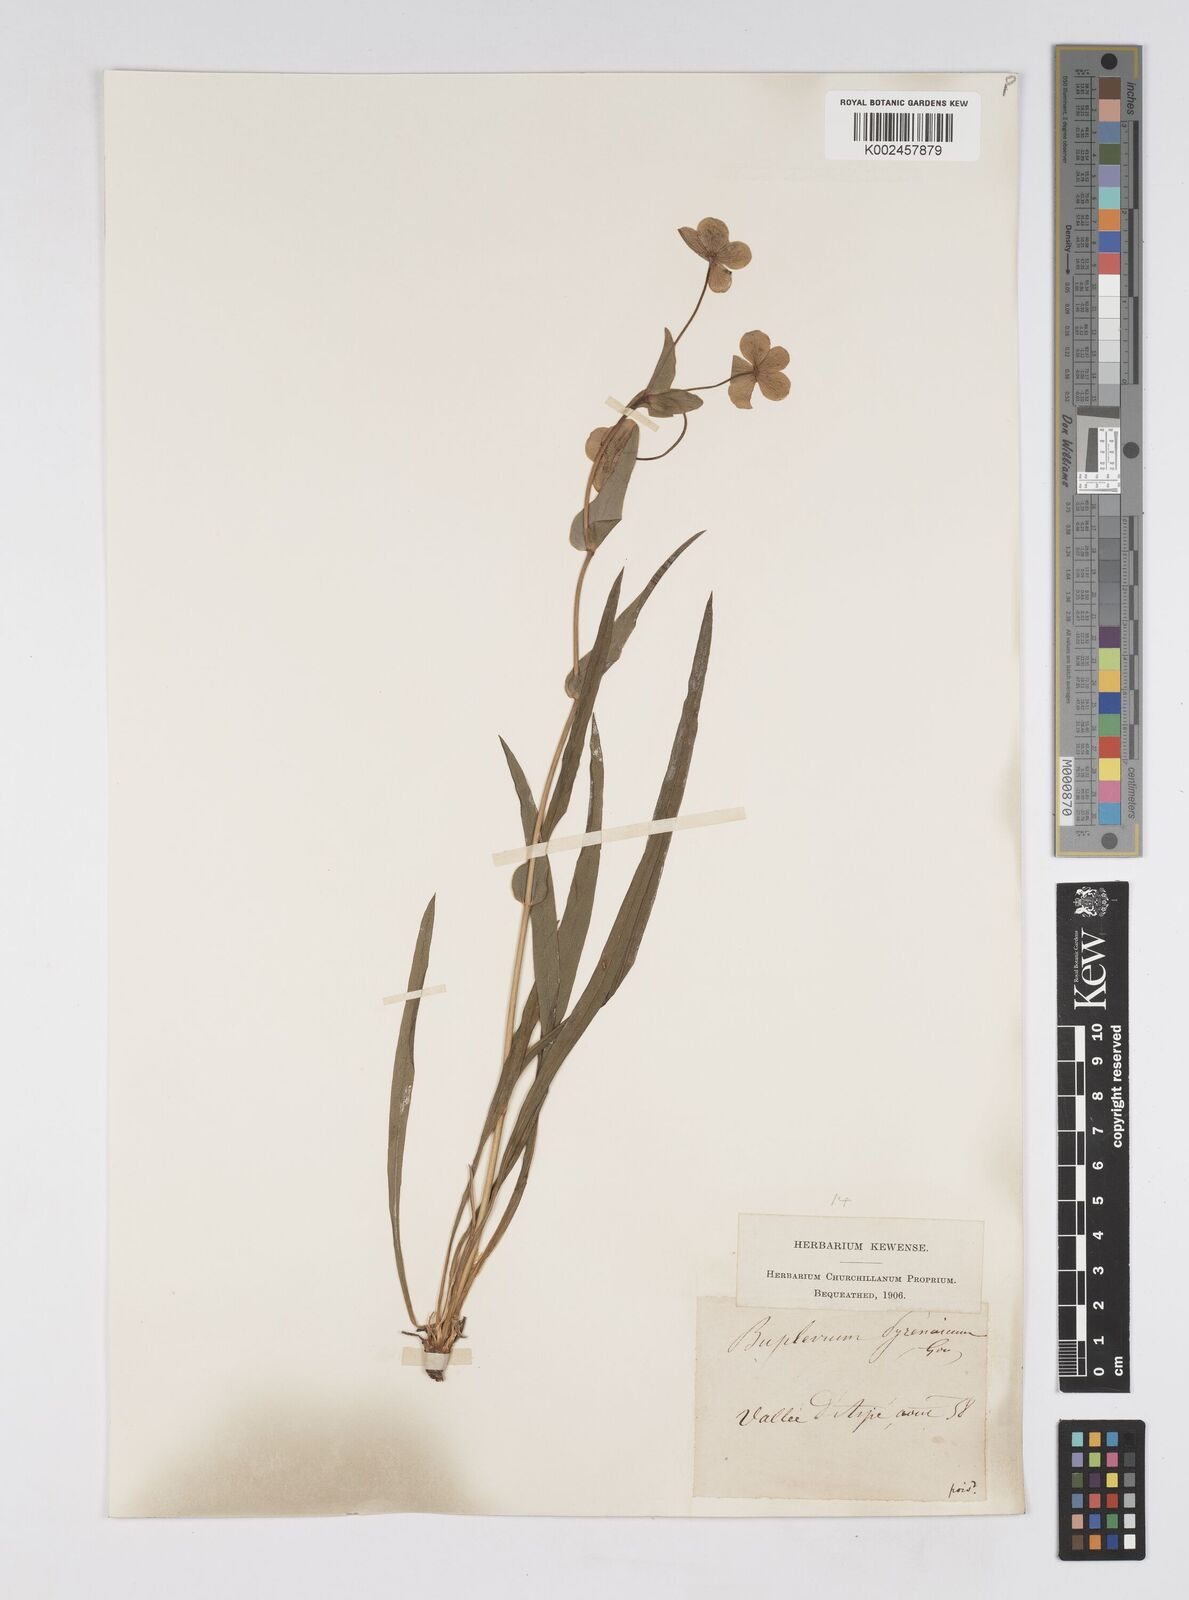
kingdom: Plantae
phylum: Tracheophyta
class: Magnoliopsida
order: Apiales
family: Apiaceae
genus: Bupleurum
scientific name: Bupleurum angulosum
